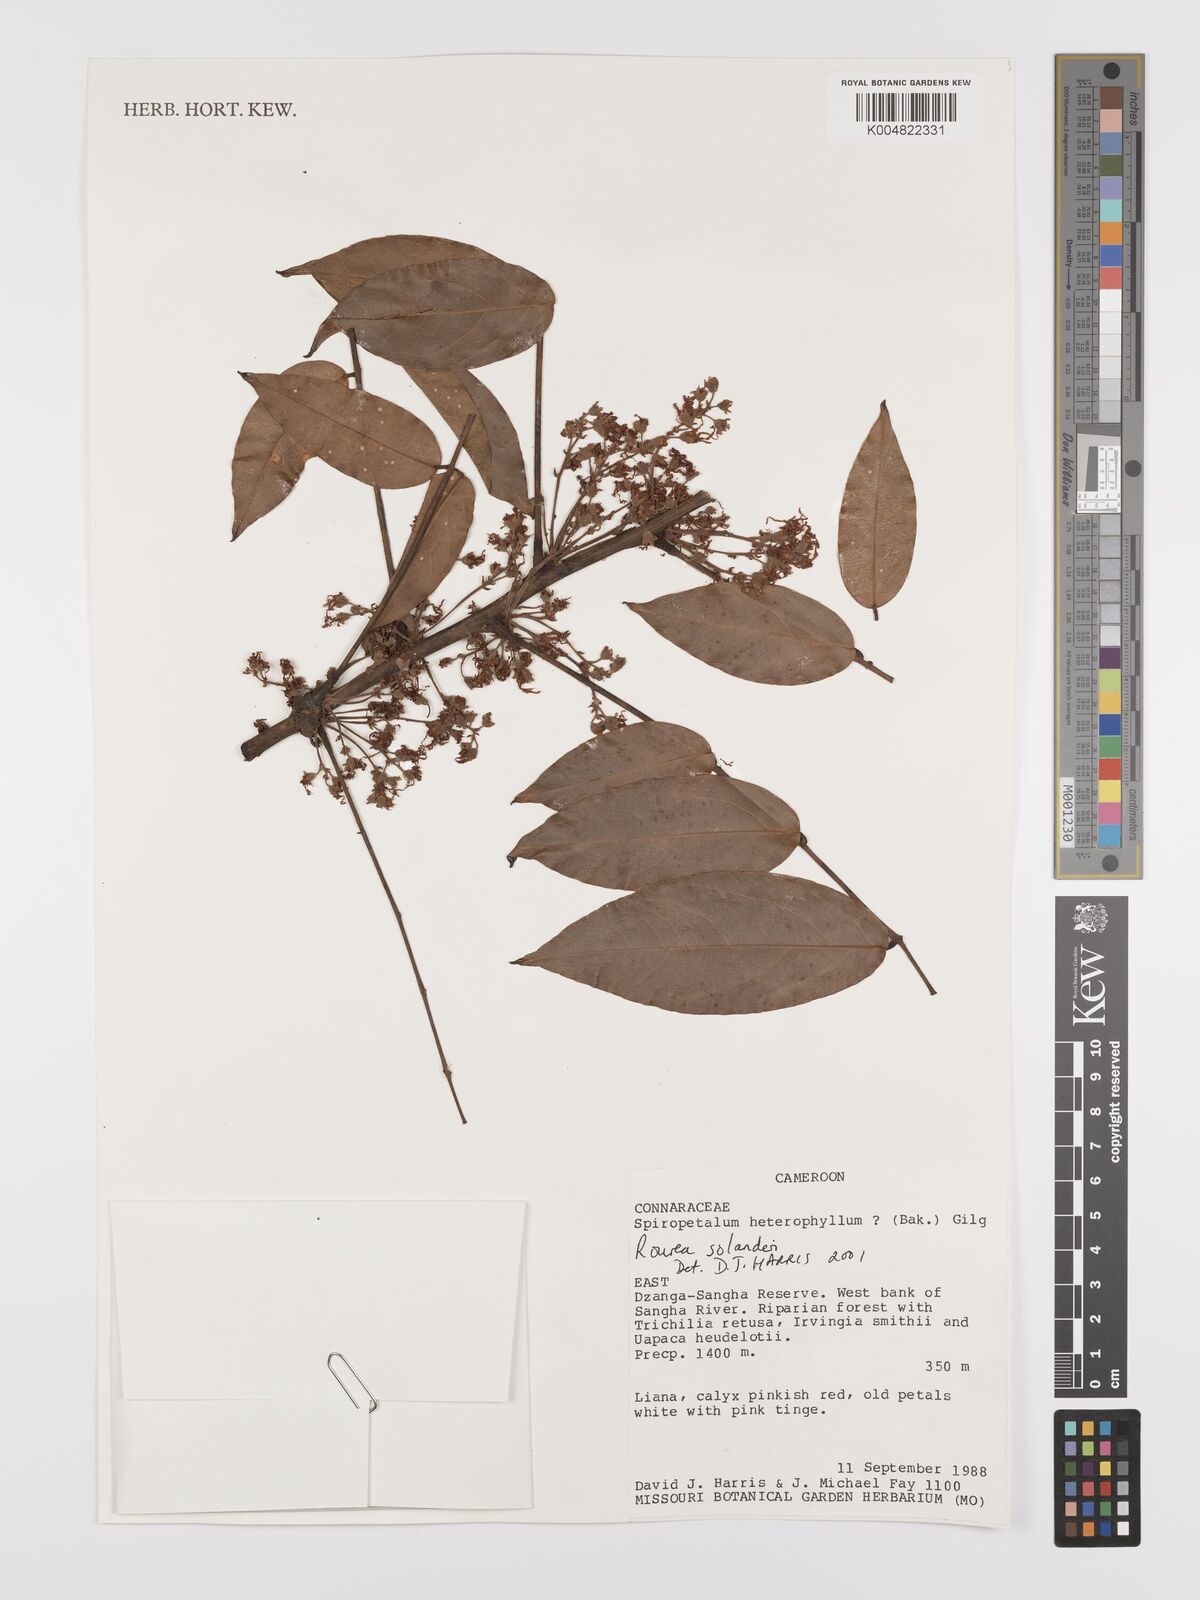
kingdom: Plantae
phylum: Tracheophyta
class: Magnoliopsida
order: Oxalidales
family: Connaraceae
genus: Rourea
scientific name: Rourea solanderi
